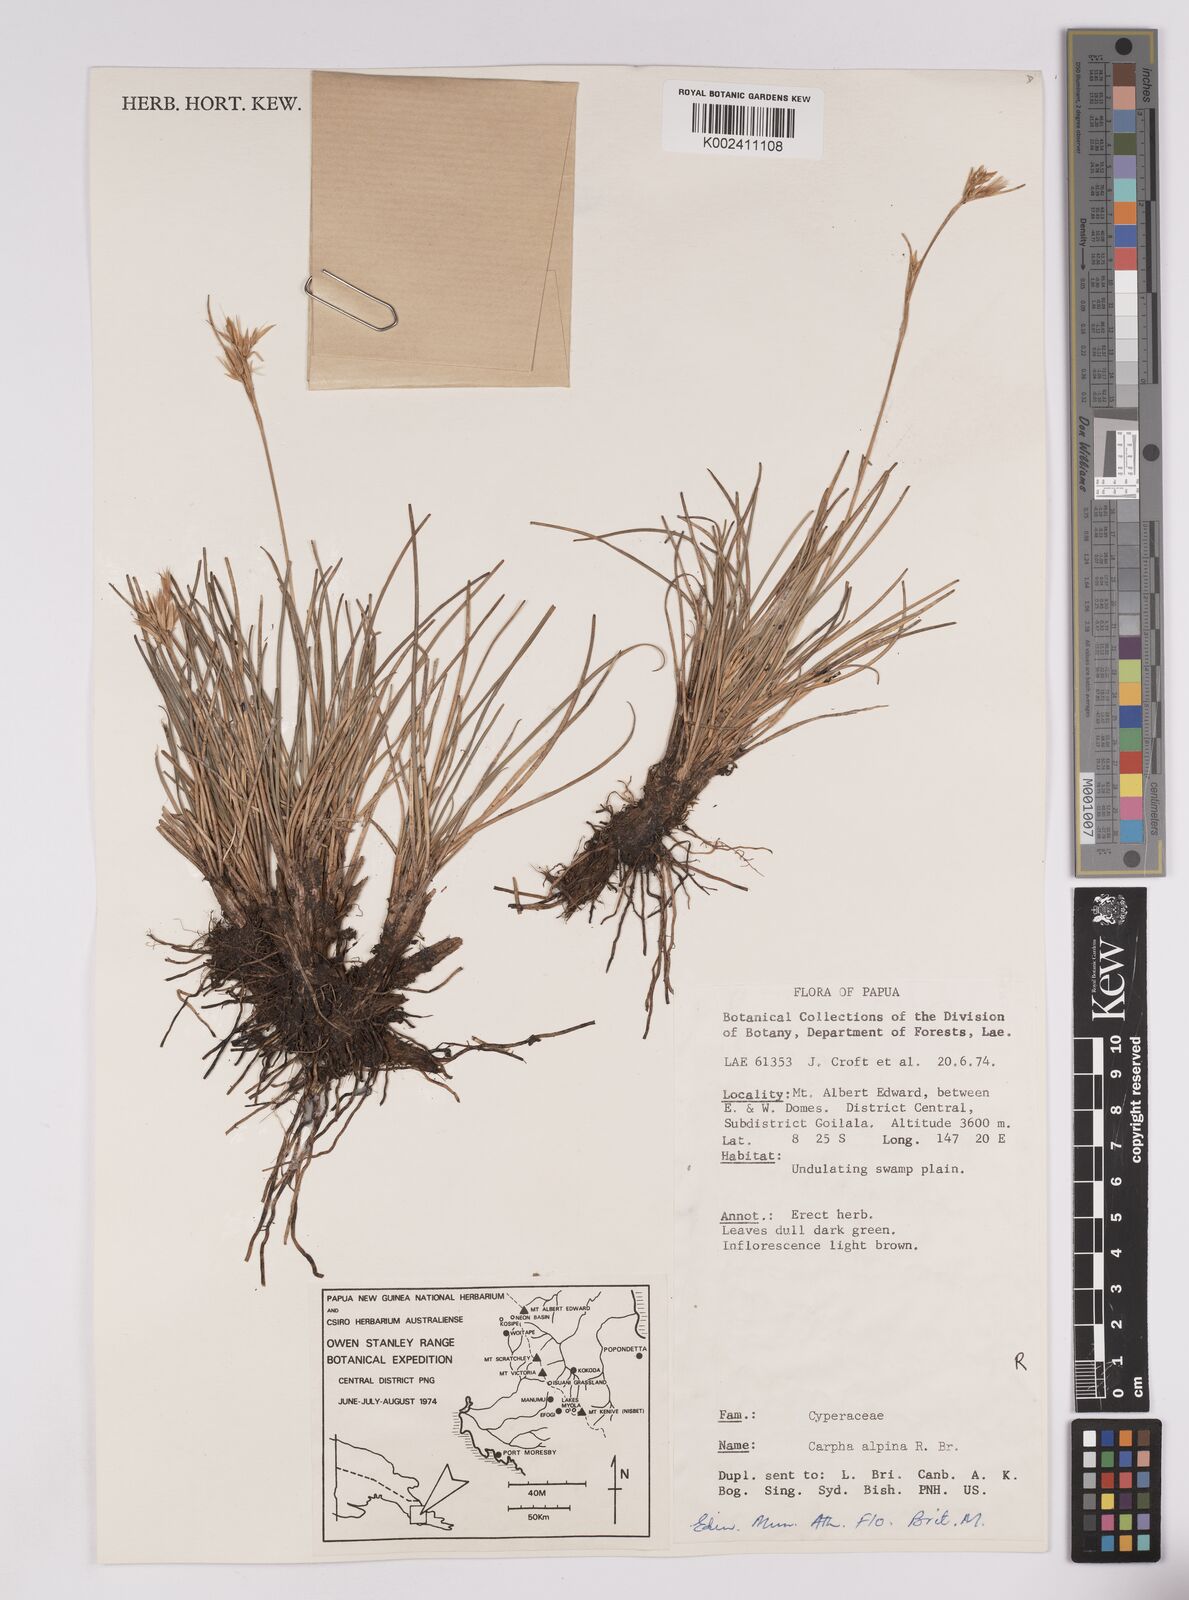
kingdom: Plantae
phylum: Tracheophyta
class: Liliopsida
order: Poales
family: Cyperaceae
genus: Carpha
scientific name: Carpha alpina
